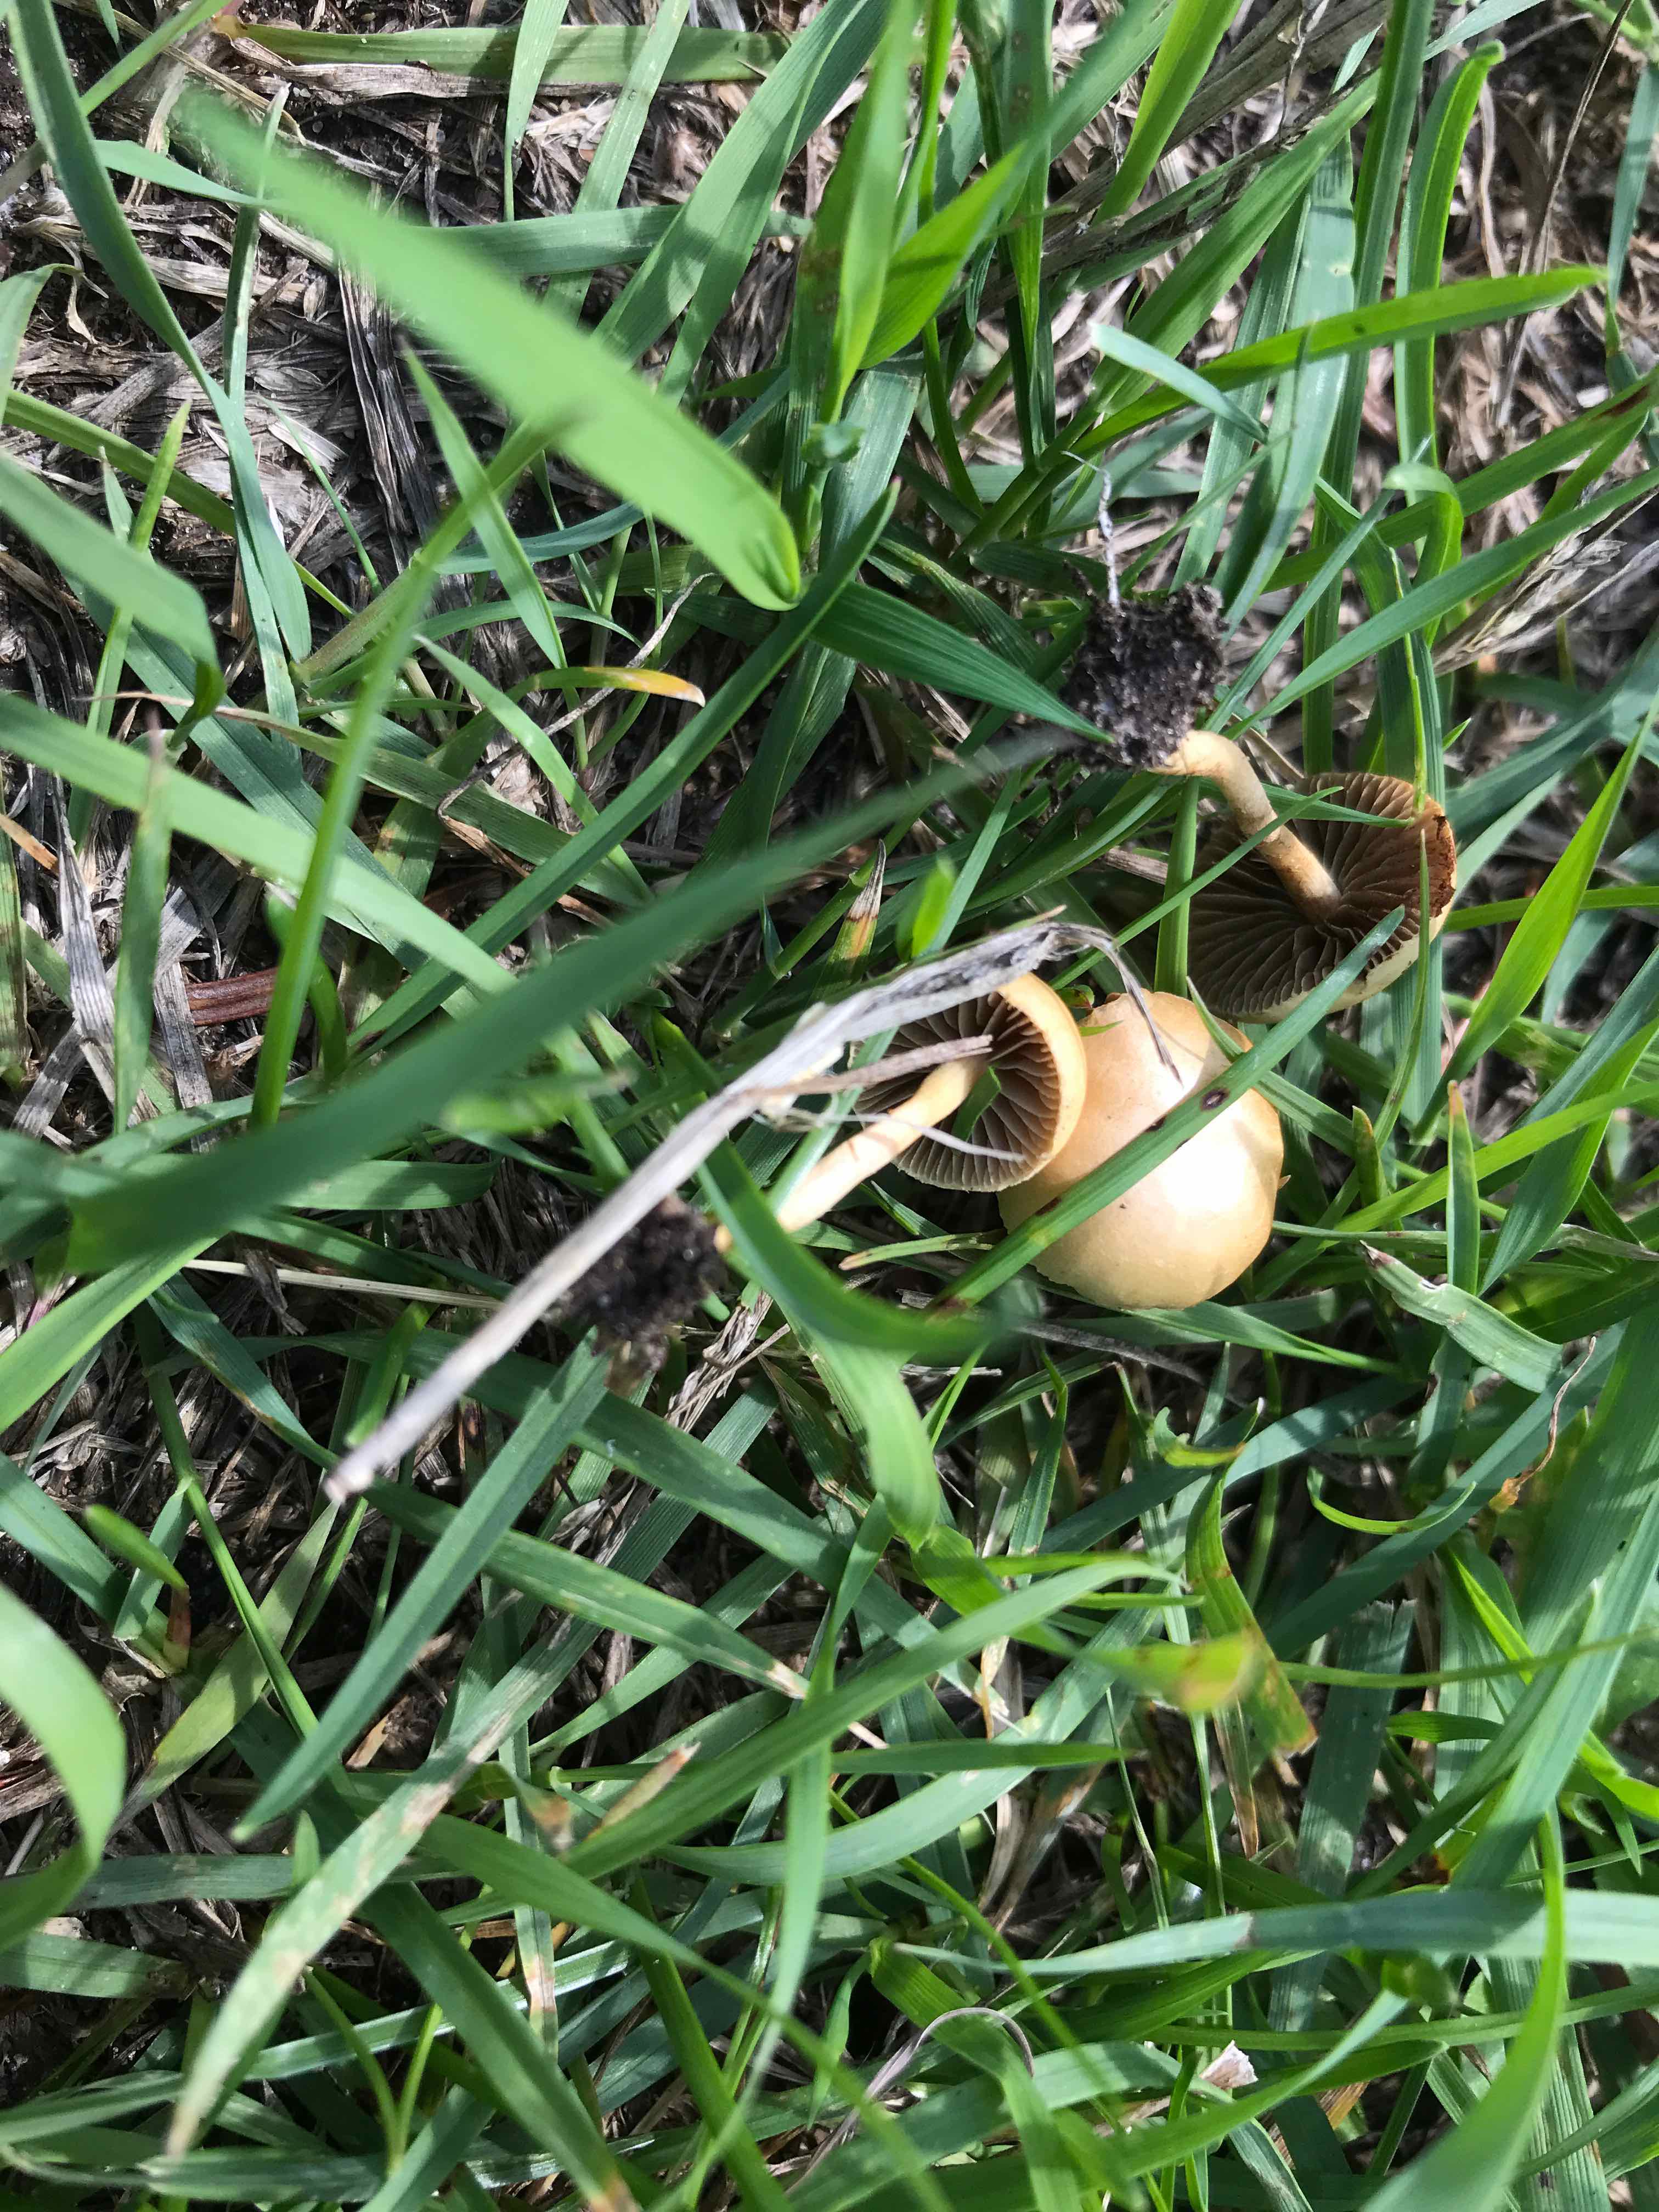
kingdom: Fungi
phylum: Basidiomycota
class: Agaricomycetes
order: Agaricales
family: Strophariaceae
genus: Agrocybe
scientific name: Agrocybe pediades
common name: almindelig agerhat
